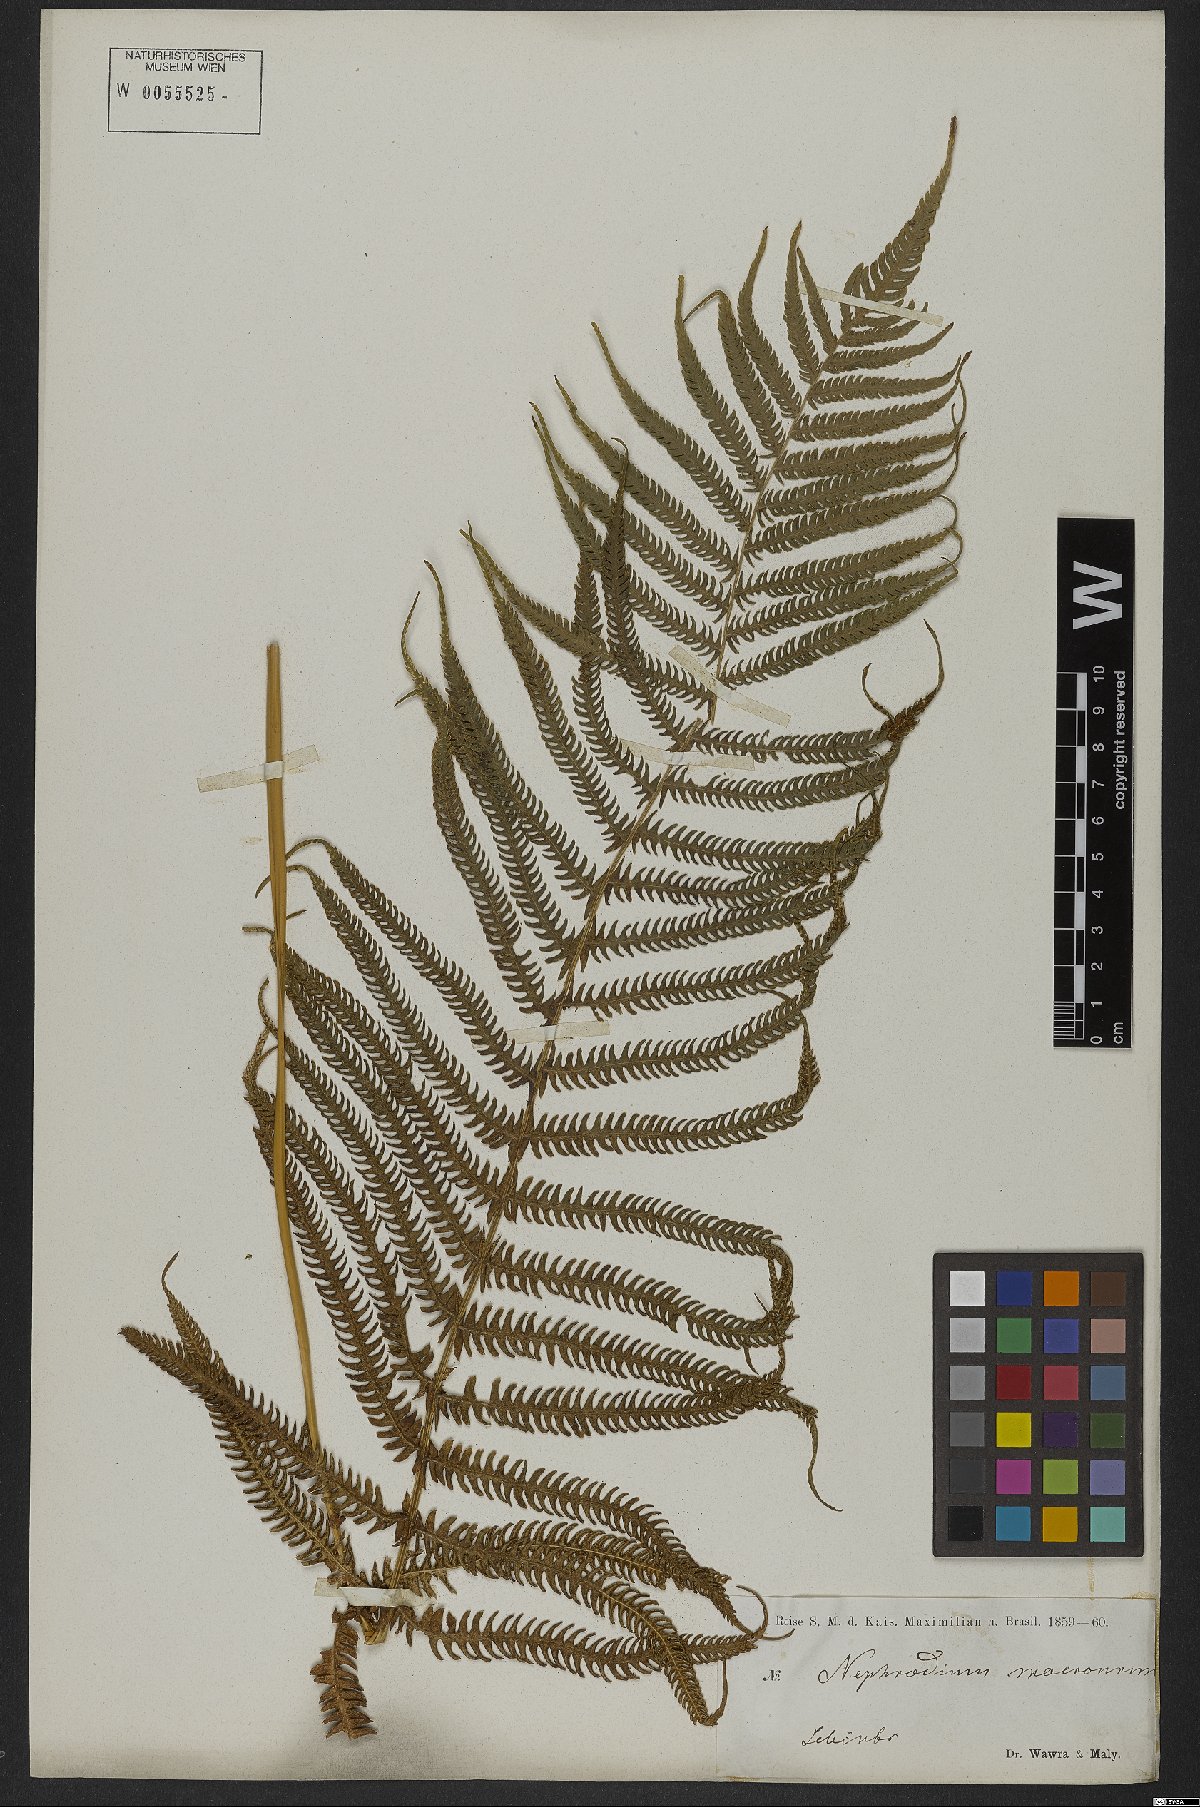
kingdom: Plantae
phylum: Tracheophyta
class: Polypodiopsida
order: Polypodiales
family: Thelypteridaceae
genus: Pelazoneuron
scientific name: Pelazoneuron patens
